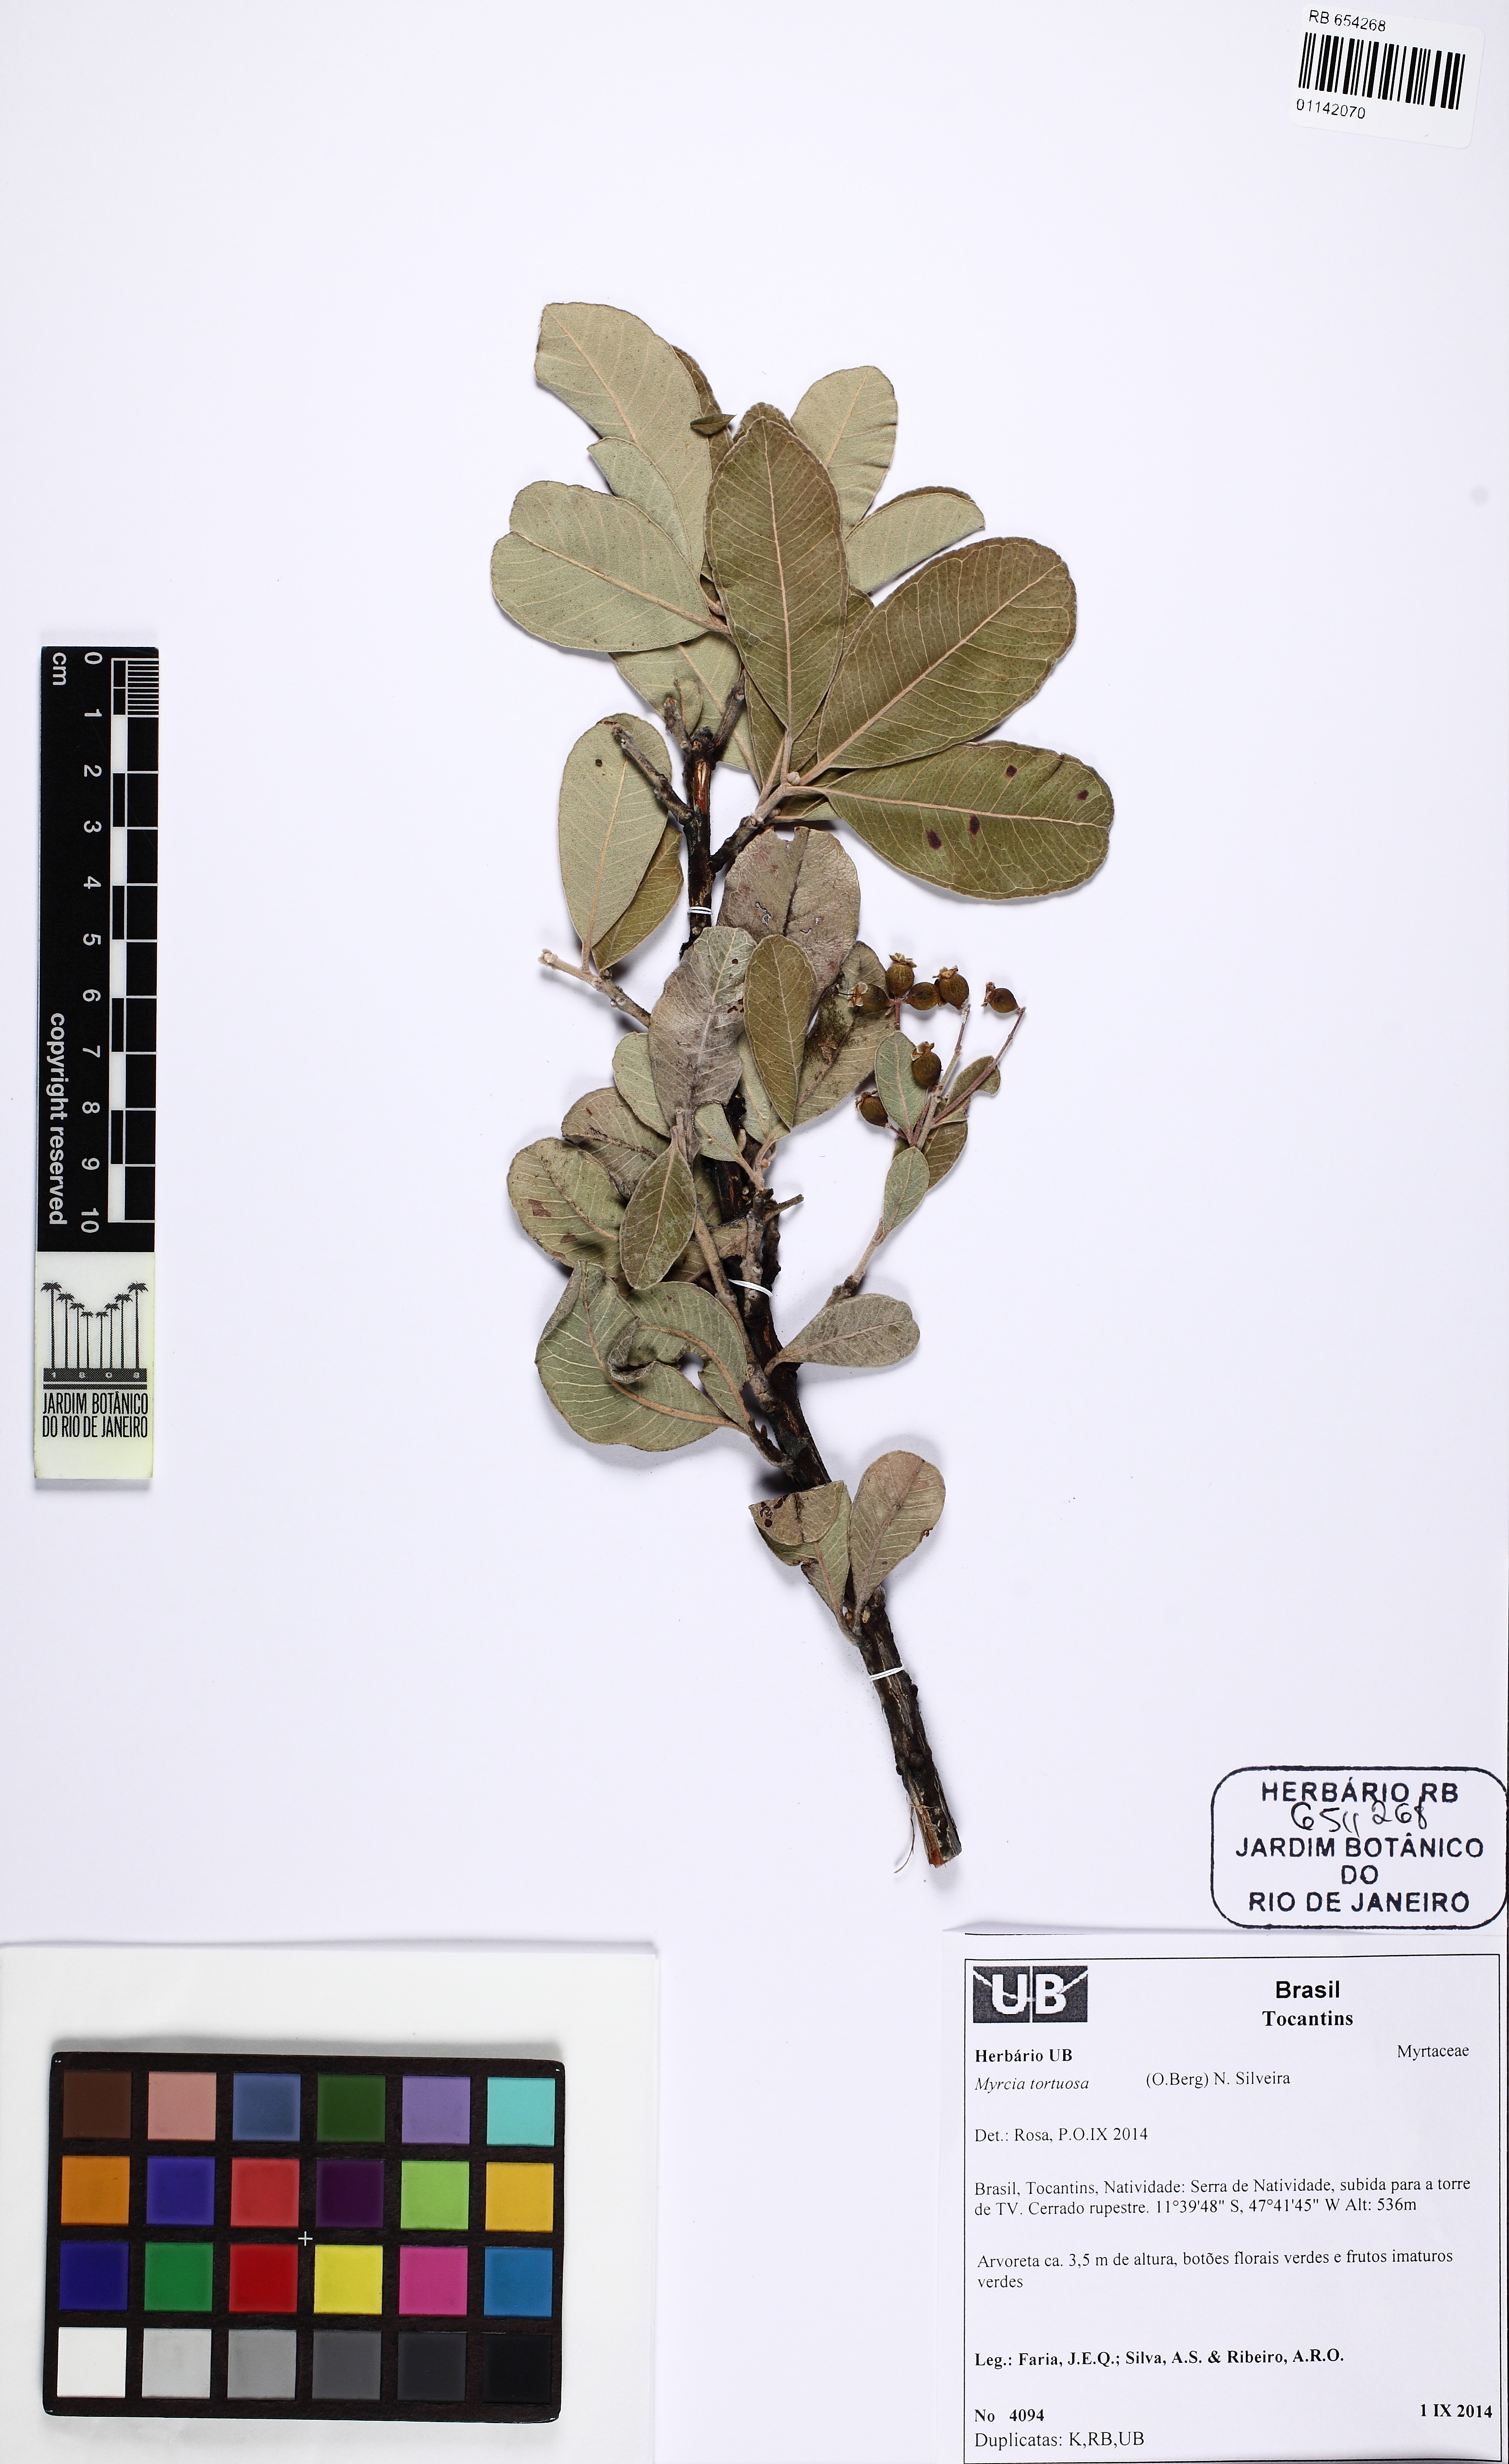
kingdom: Plantae
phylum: Tracheophyta
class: Magnoliopsida
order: Myrtales
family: Myrtaceae
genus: Myrcia
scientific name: Myrcia tortuosa
